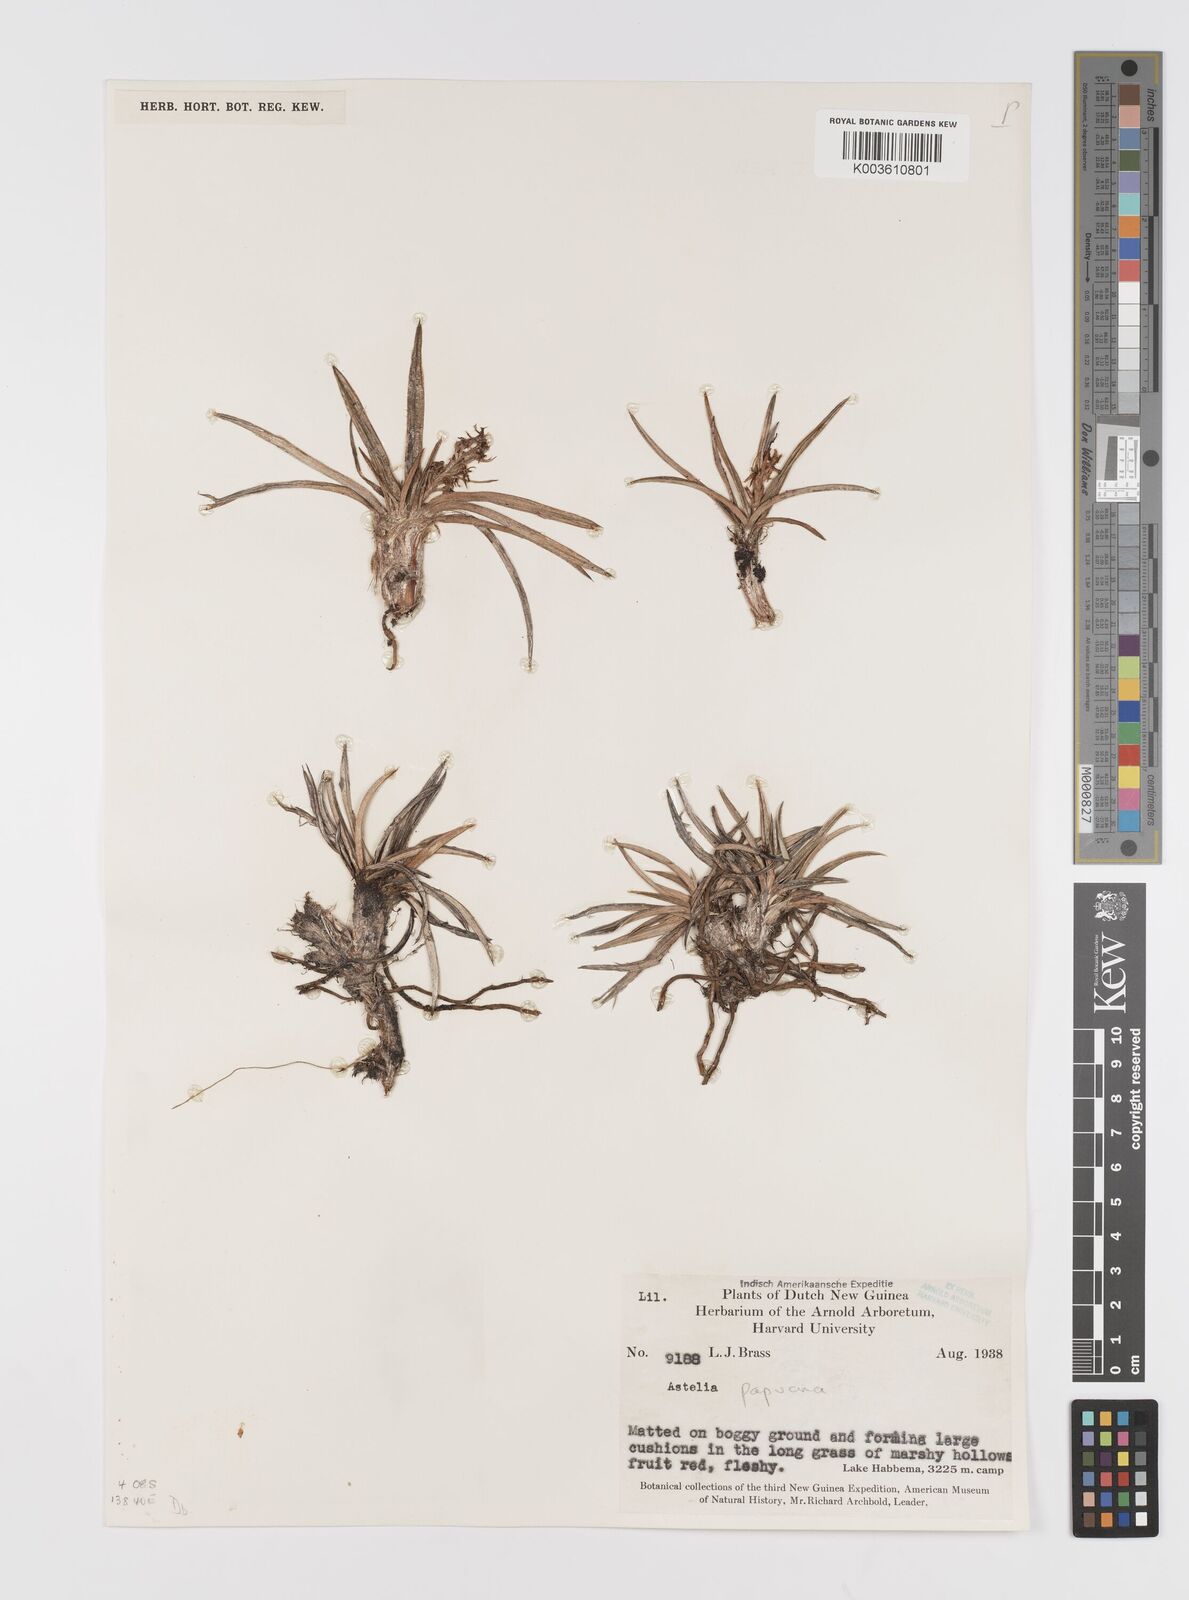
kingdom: Plantae
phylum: Tracheophyta
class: Liliopsida
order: Asparagales
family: Asteliaceae
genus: Astelia
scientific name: Astelia papuana
